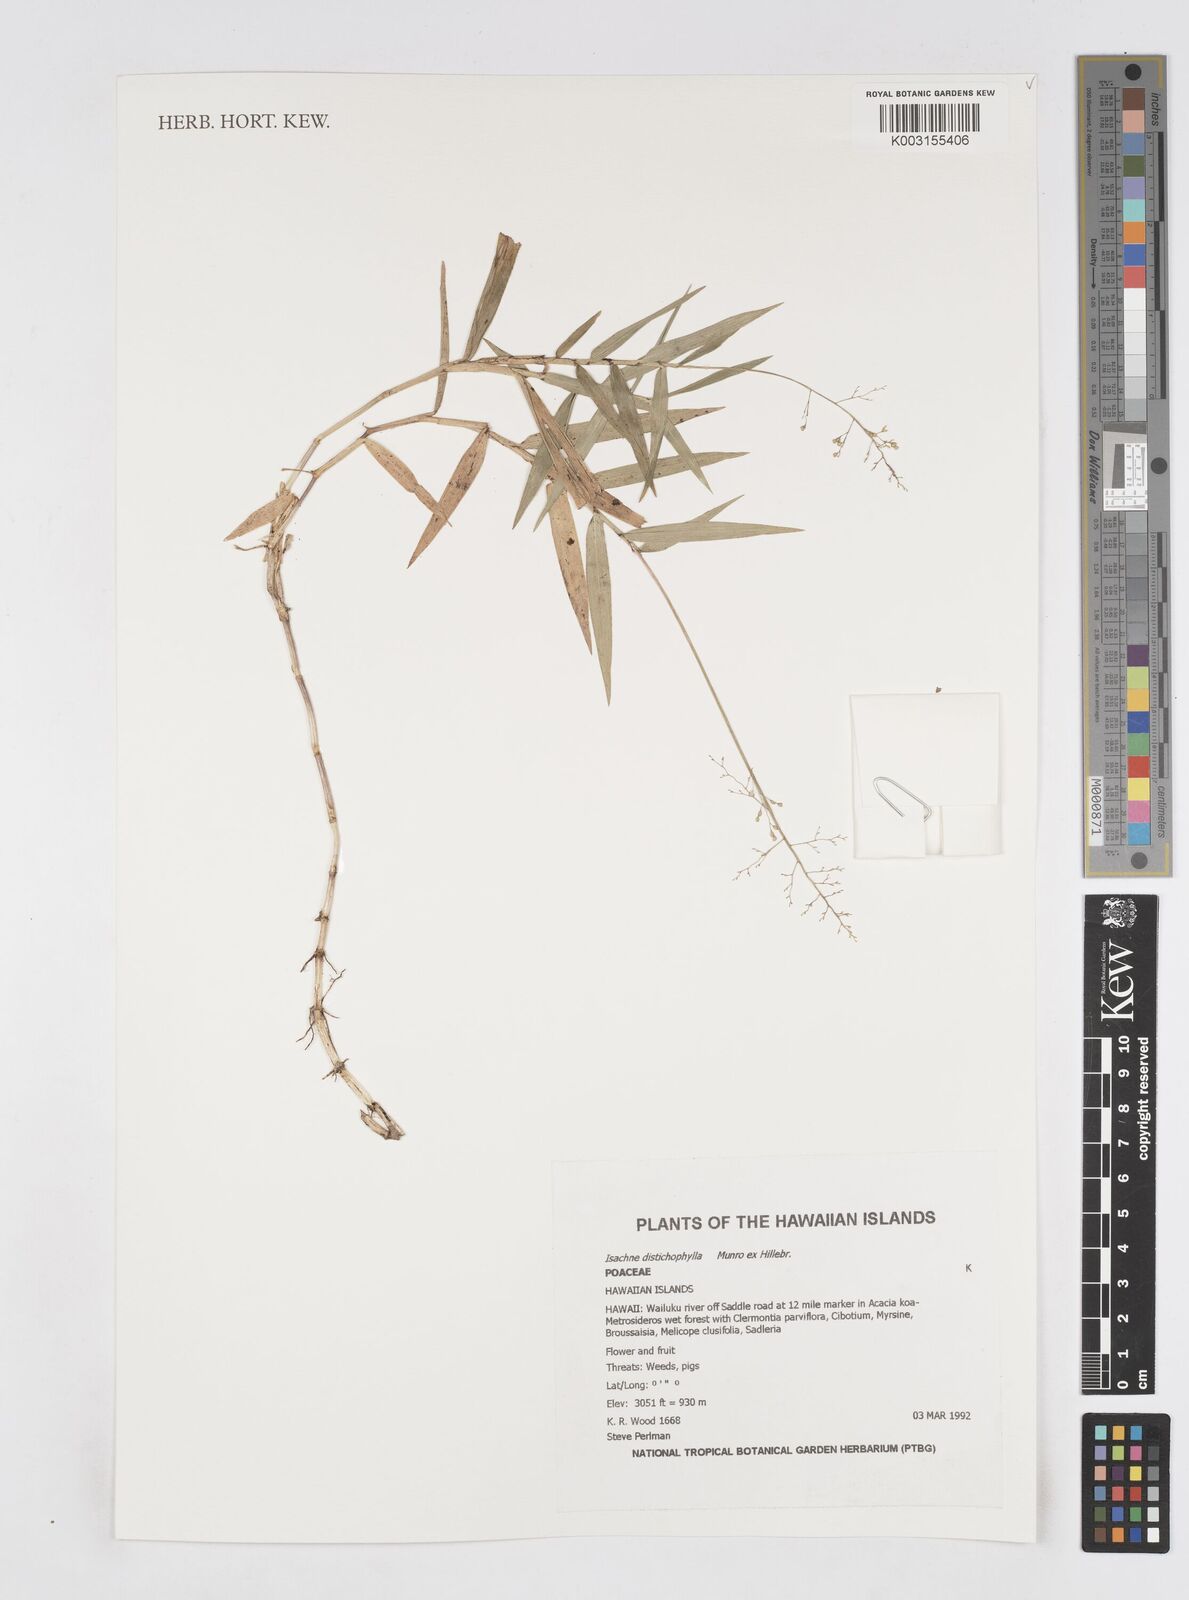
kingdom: Plantae
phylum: Tracheophyta
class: Liliopsida
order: Poales
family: Poaceae
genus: Isachne
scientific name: Isachne distichophylla
